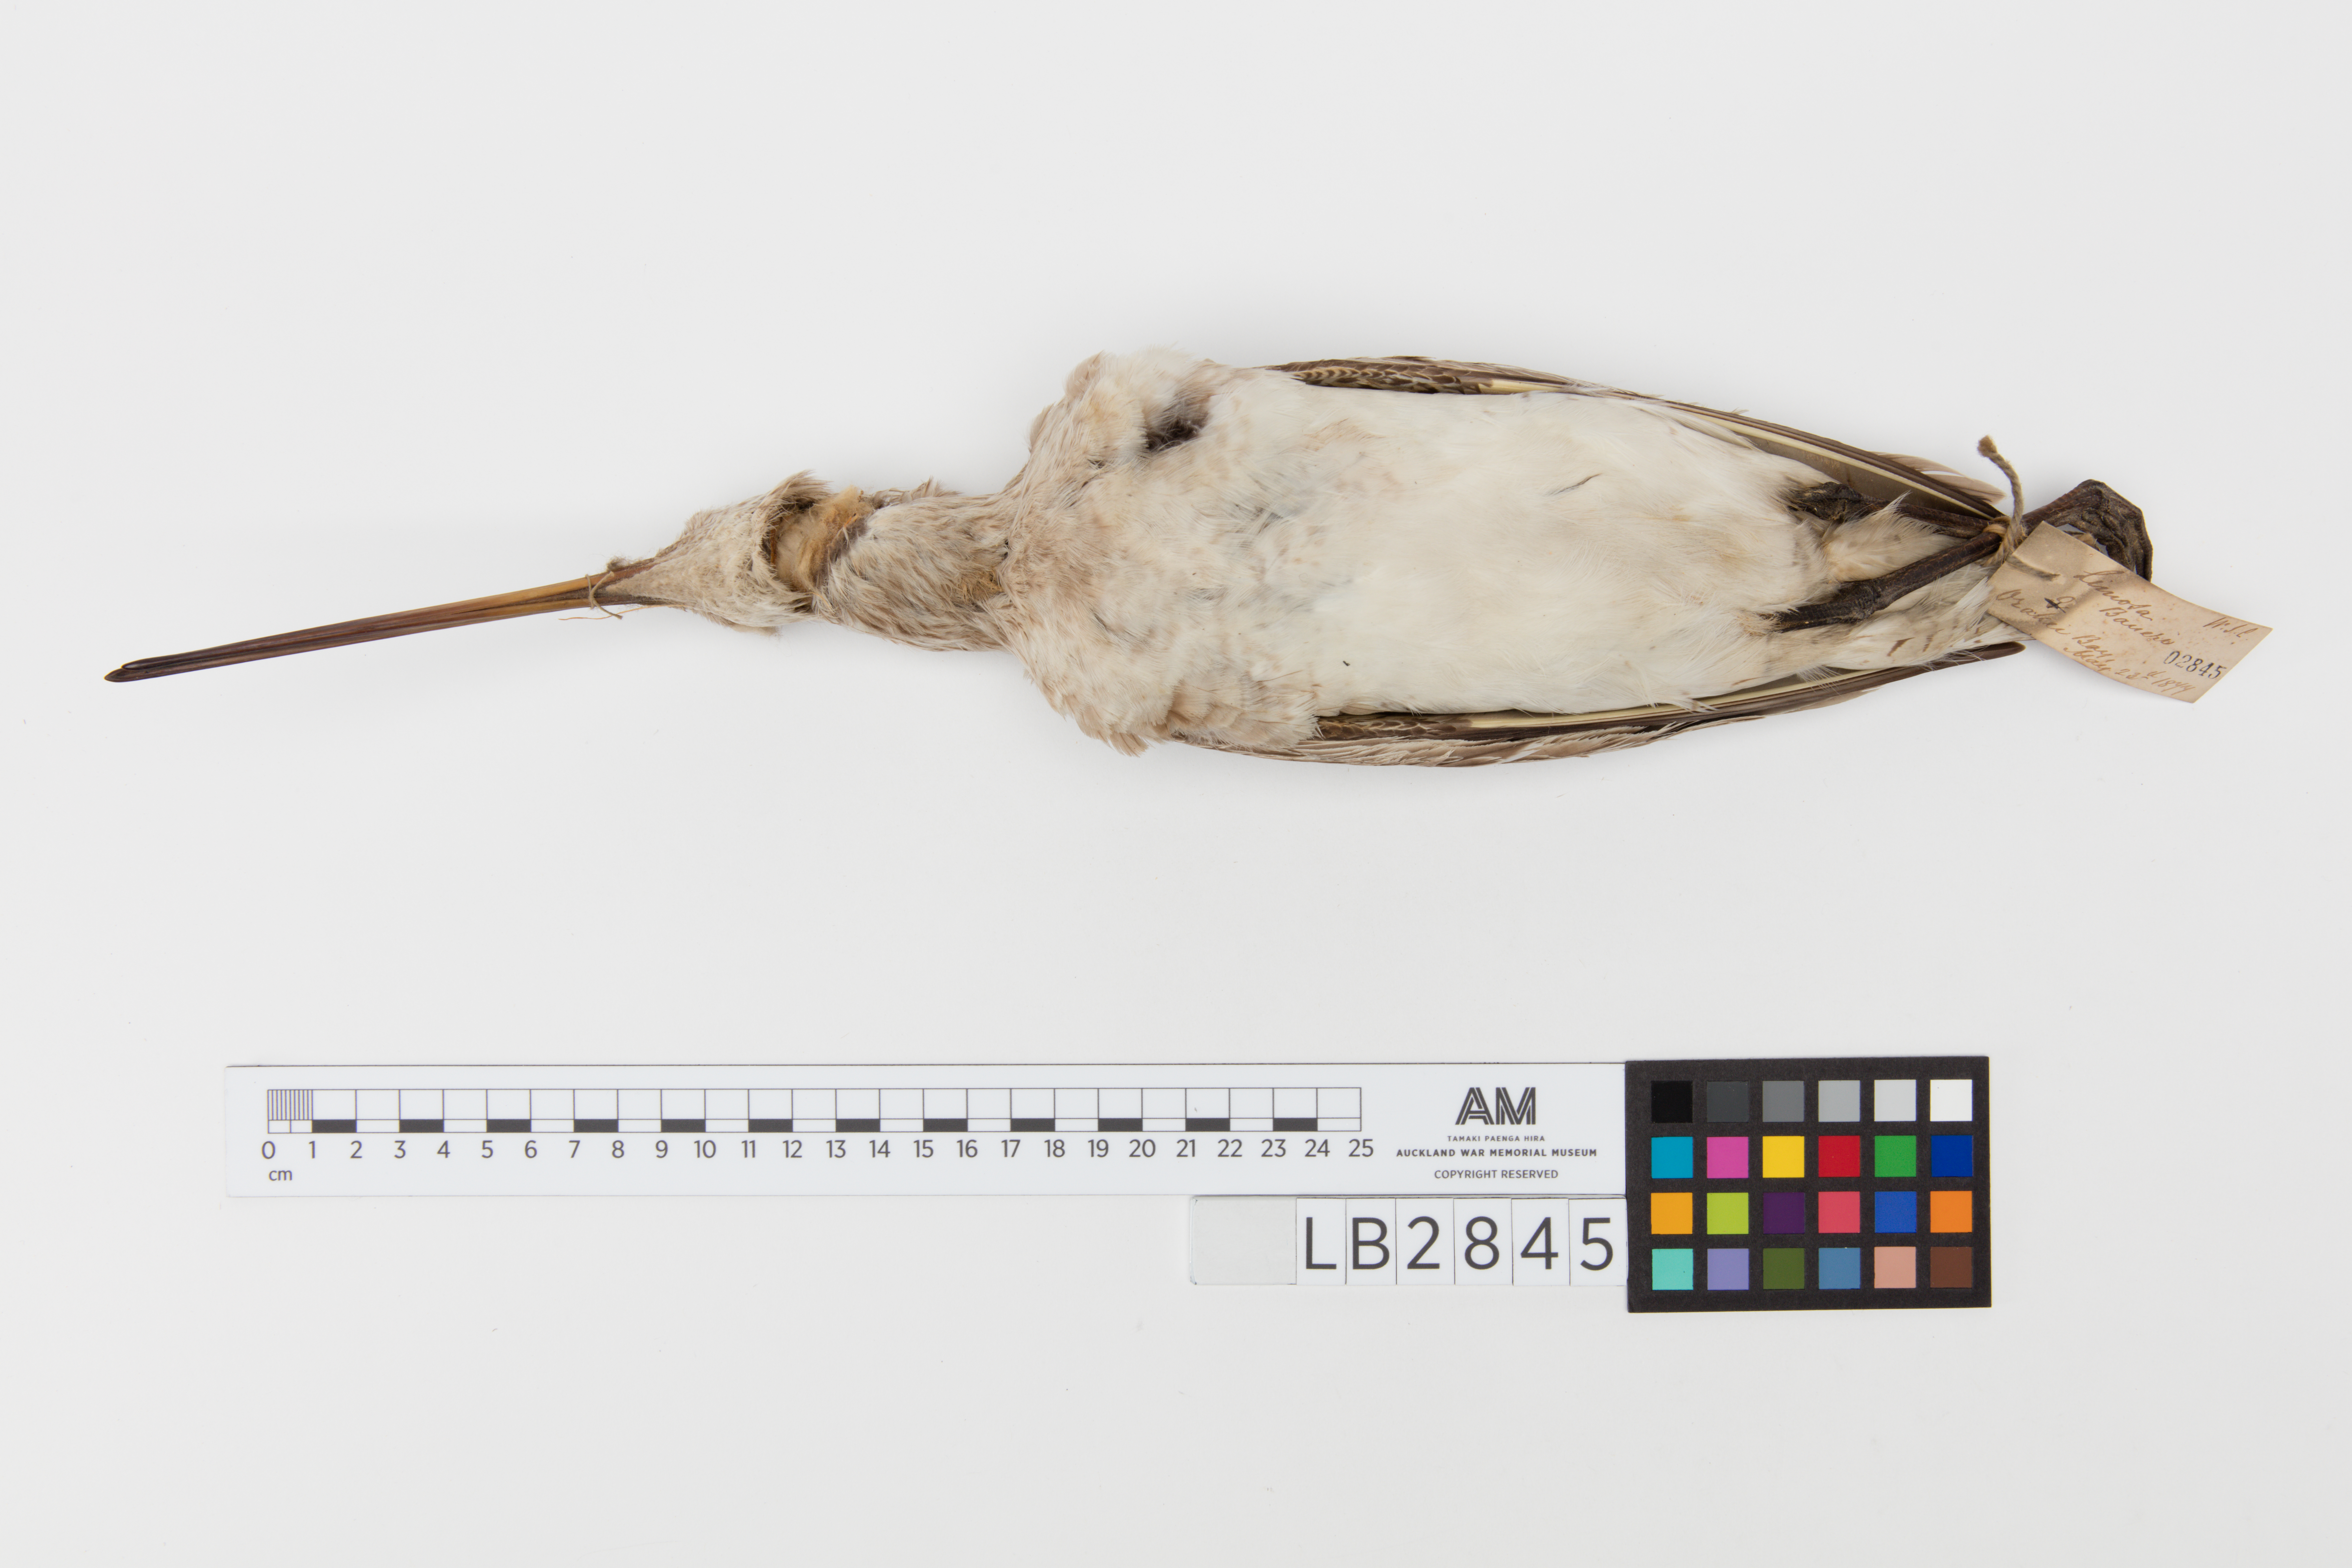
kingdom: Animalia
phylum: Chordata
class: Aves
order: Charadriiformes
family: Scolopacidae
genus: Limosa
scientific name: Limosa lapponica
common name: Bar-tailed godwit
